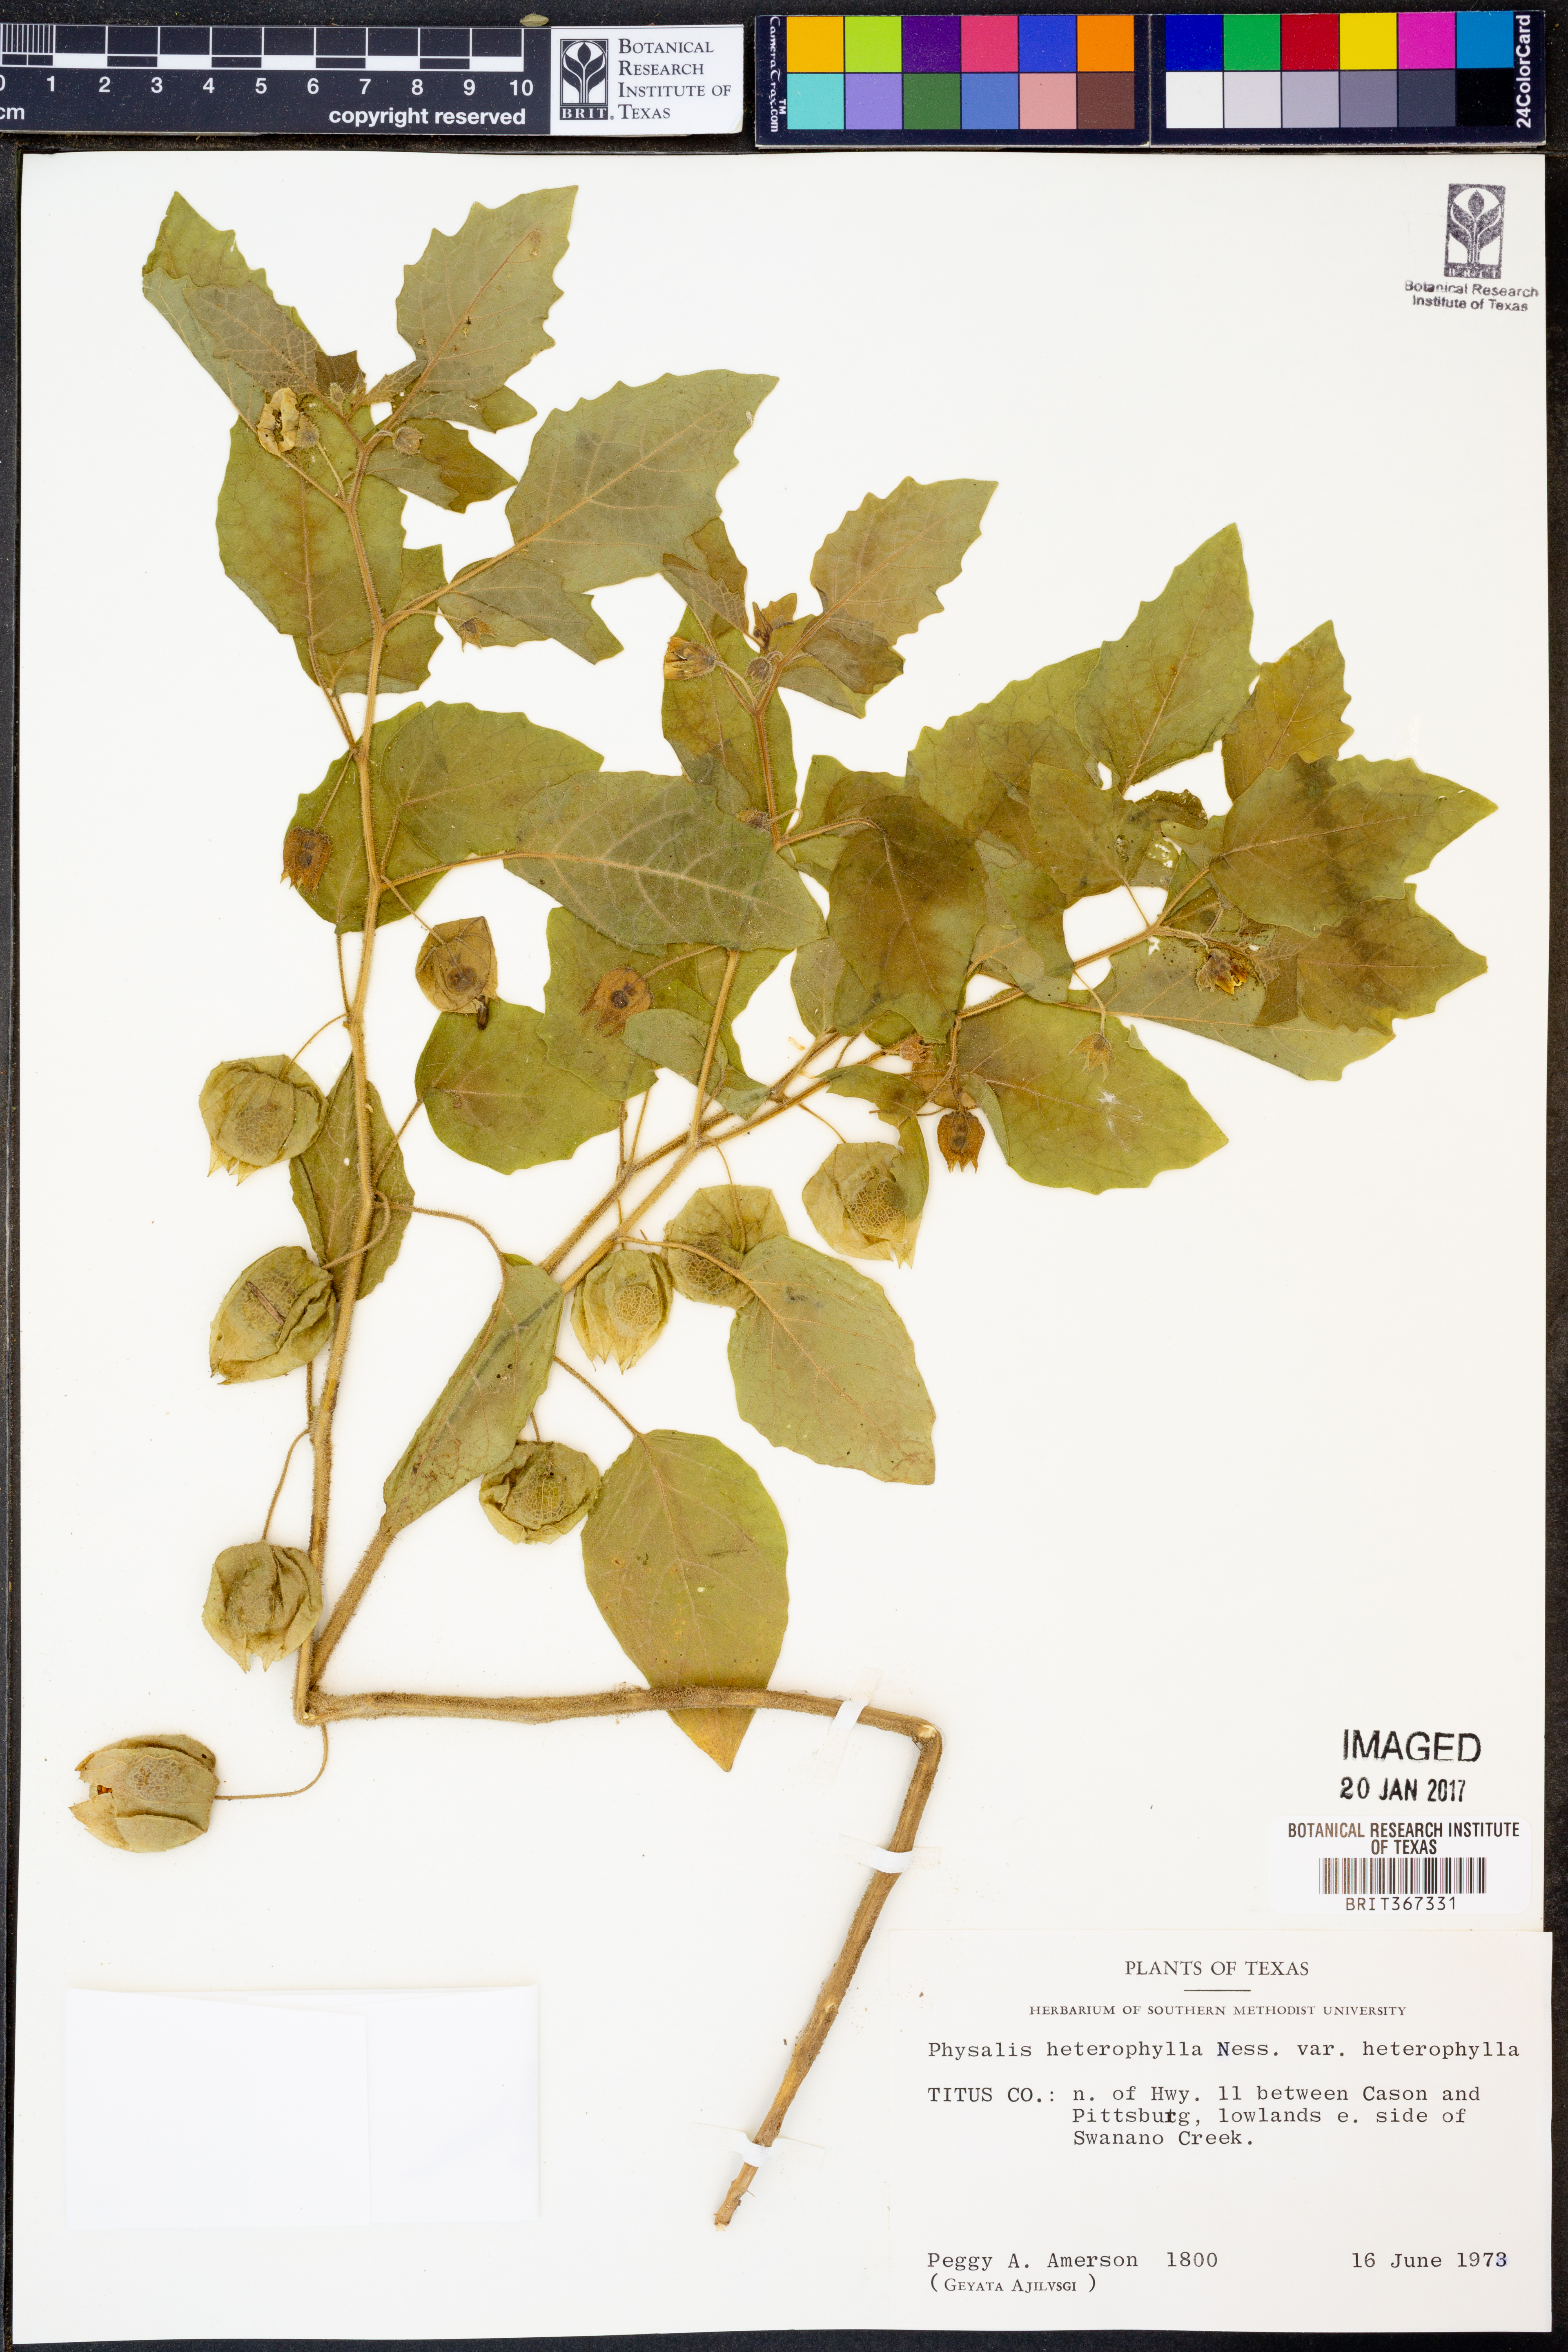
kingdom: Plantae
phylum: Tracheophyta
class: Magnoliopsida
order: Solanales
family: Solanaceae
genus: Physalis
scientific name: Physalis heterophylla
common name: Clammy ground-cherry
